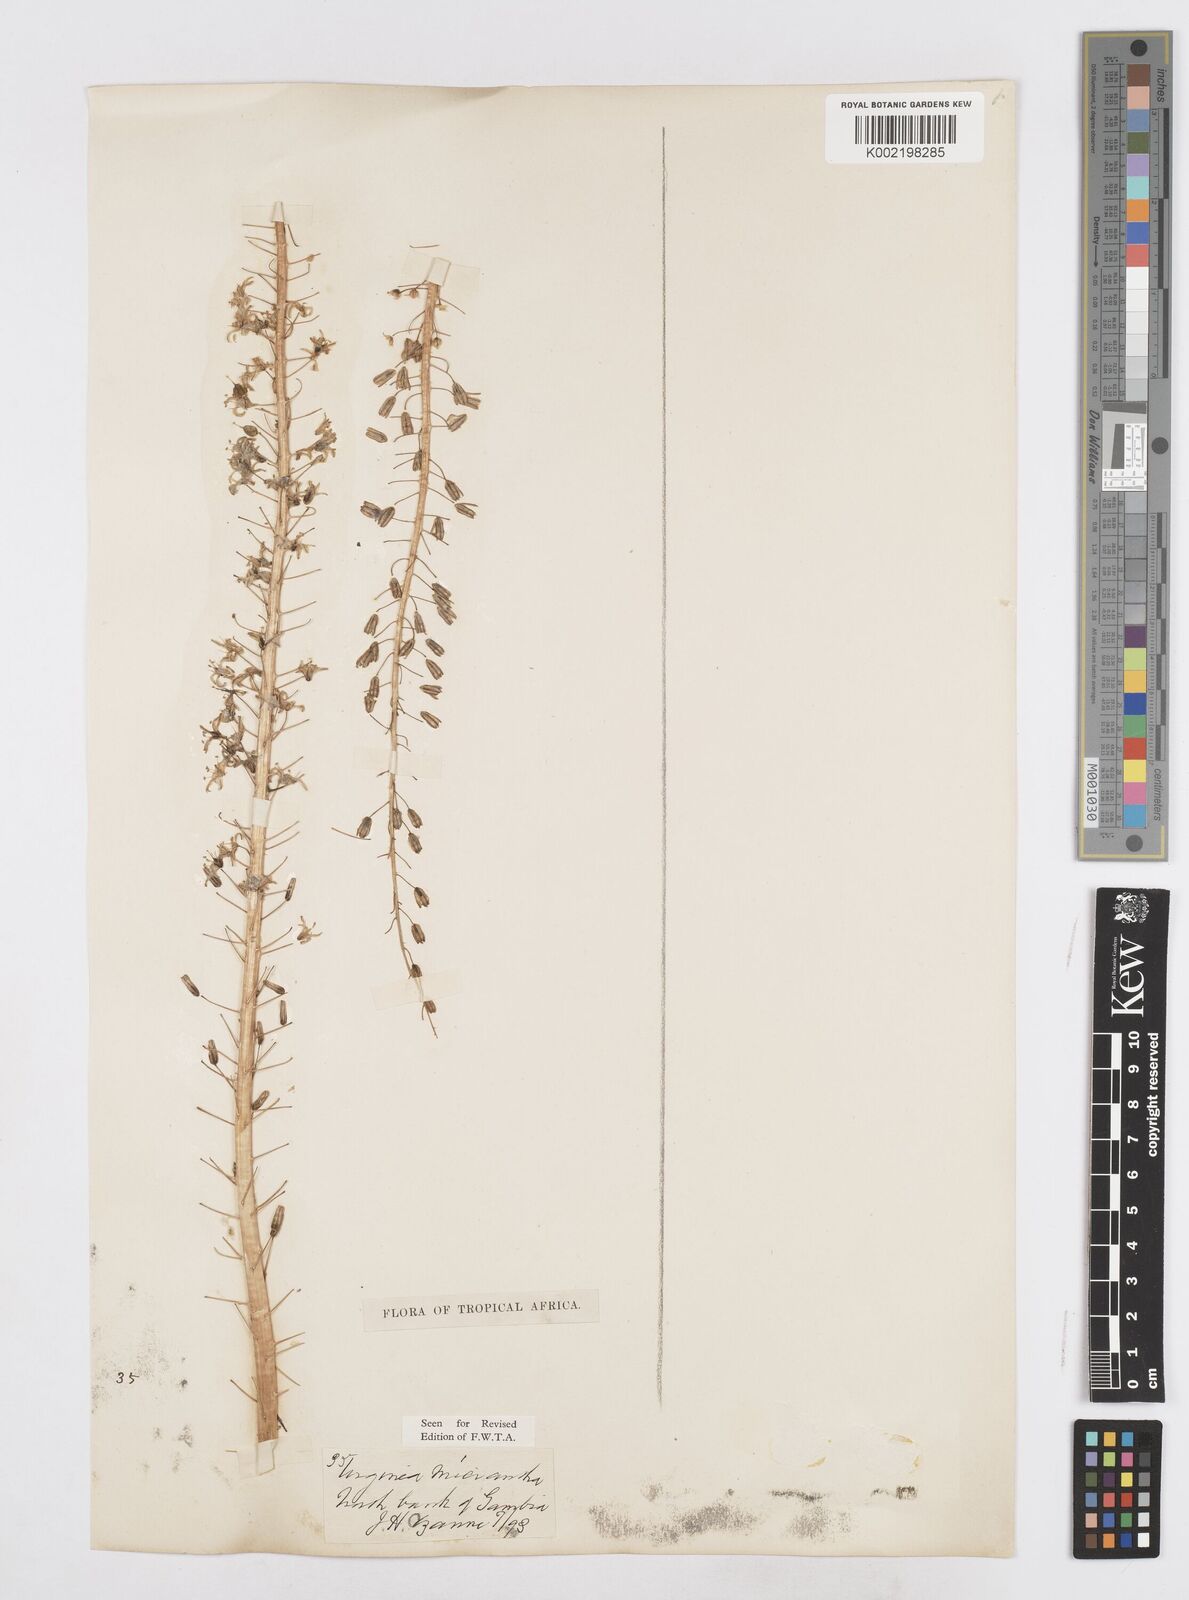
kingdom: Plantae
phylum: Tracheophyta
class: Liliopsida
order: Asparagales
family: Asparagaceae
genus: Drimia
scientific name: Drimia altissima
